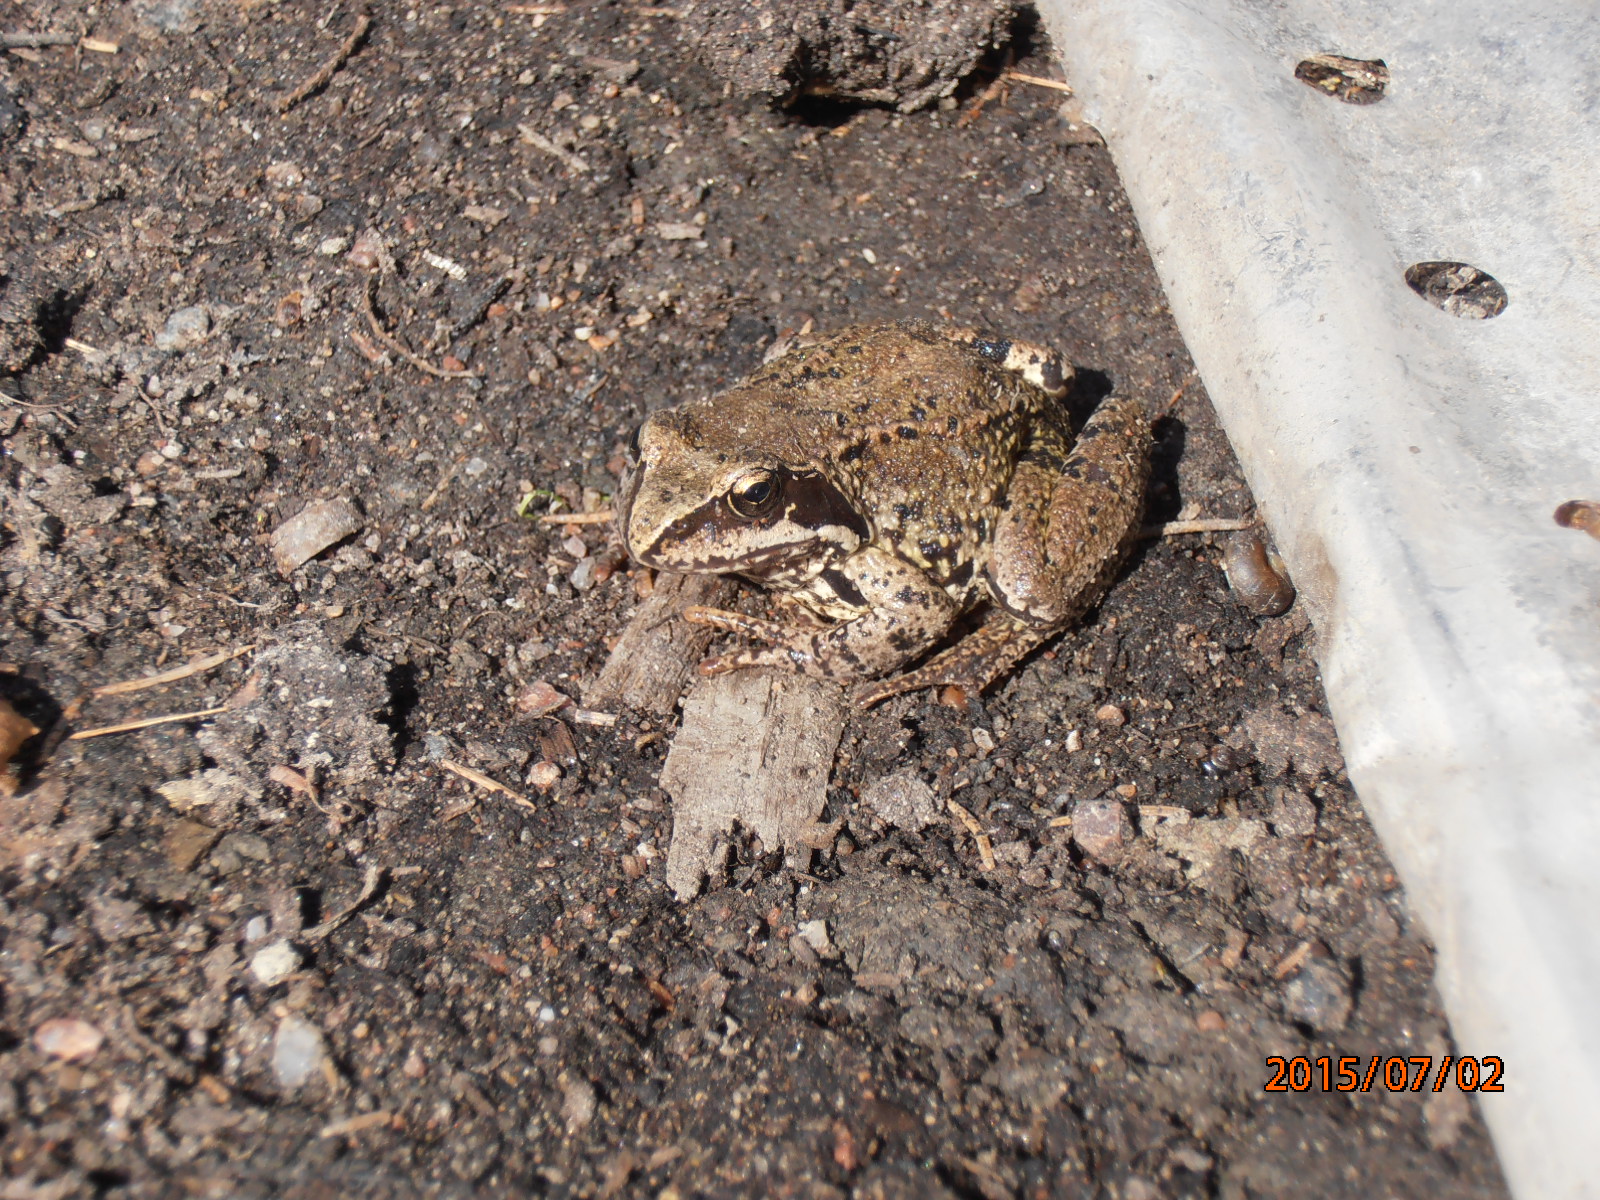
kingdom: Animalia
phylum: Chordata
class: Amphibia
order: Anura
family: Ranidae
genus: Rana
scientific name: Rana temporaria
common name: Common frog
